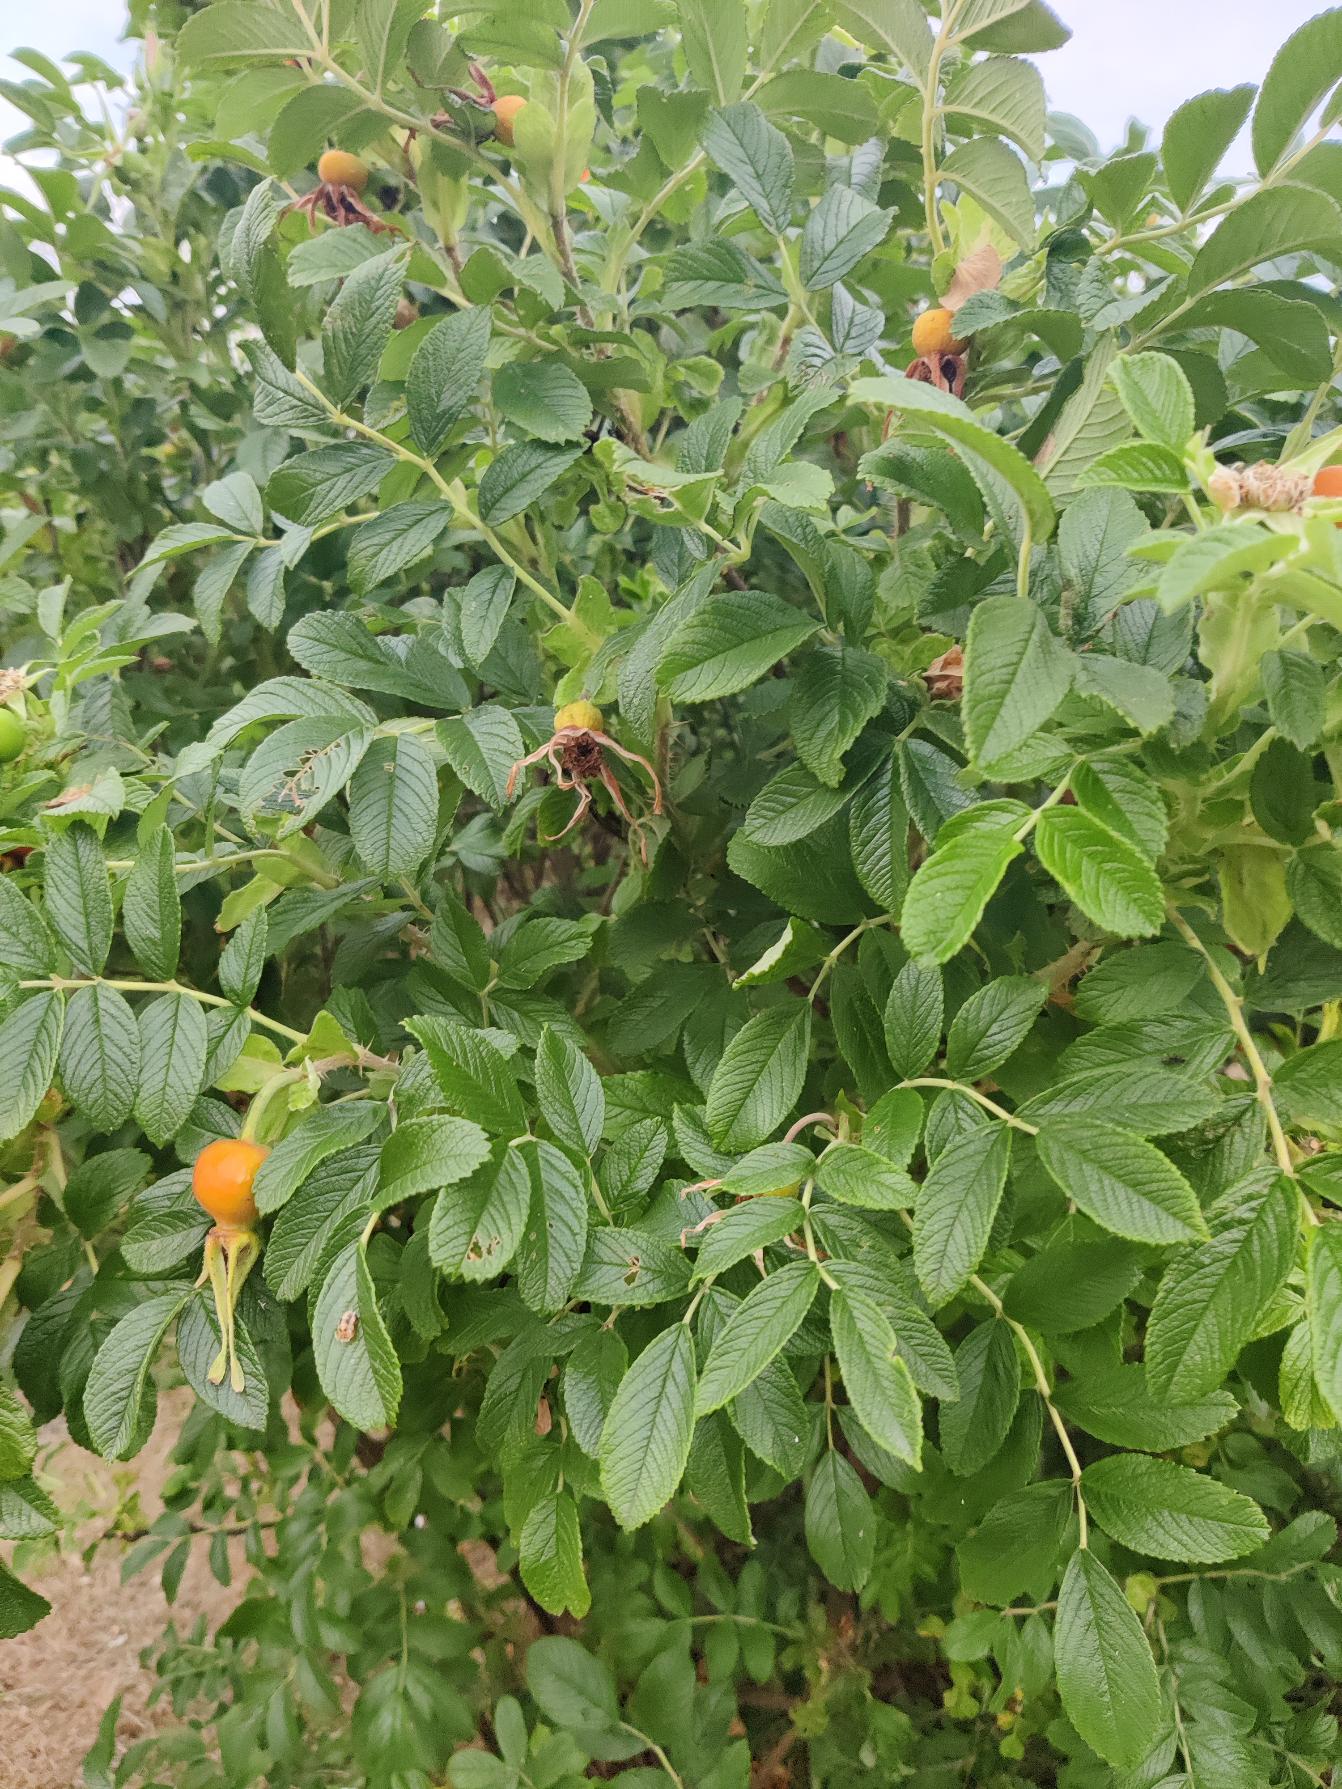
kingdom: Plantae
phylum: Tracheophyta
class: Magnoliopsida
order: Rosales
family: Rosaceae
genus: Rosa
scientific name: Rosa rugosa
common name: Rynket rose
